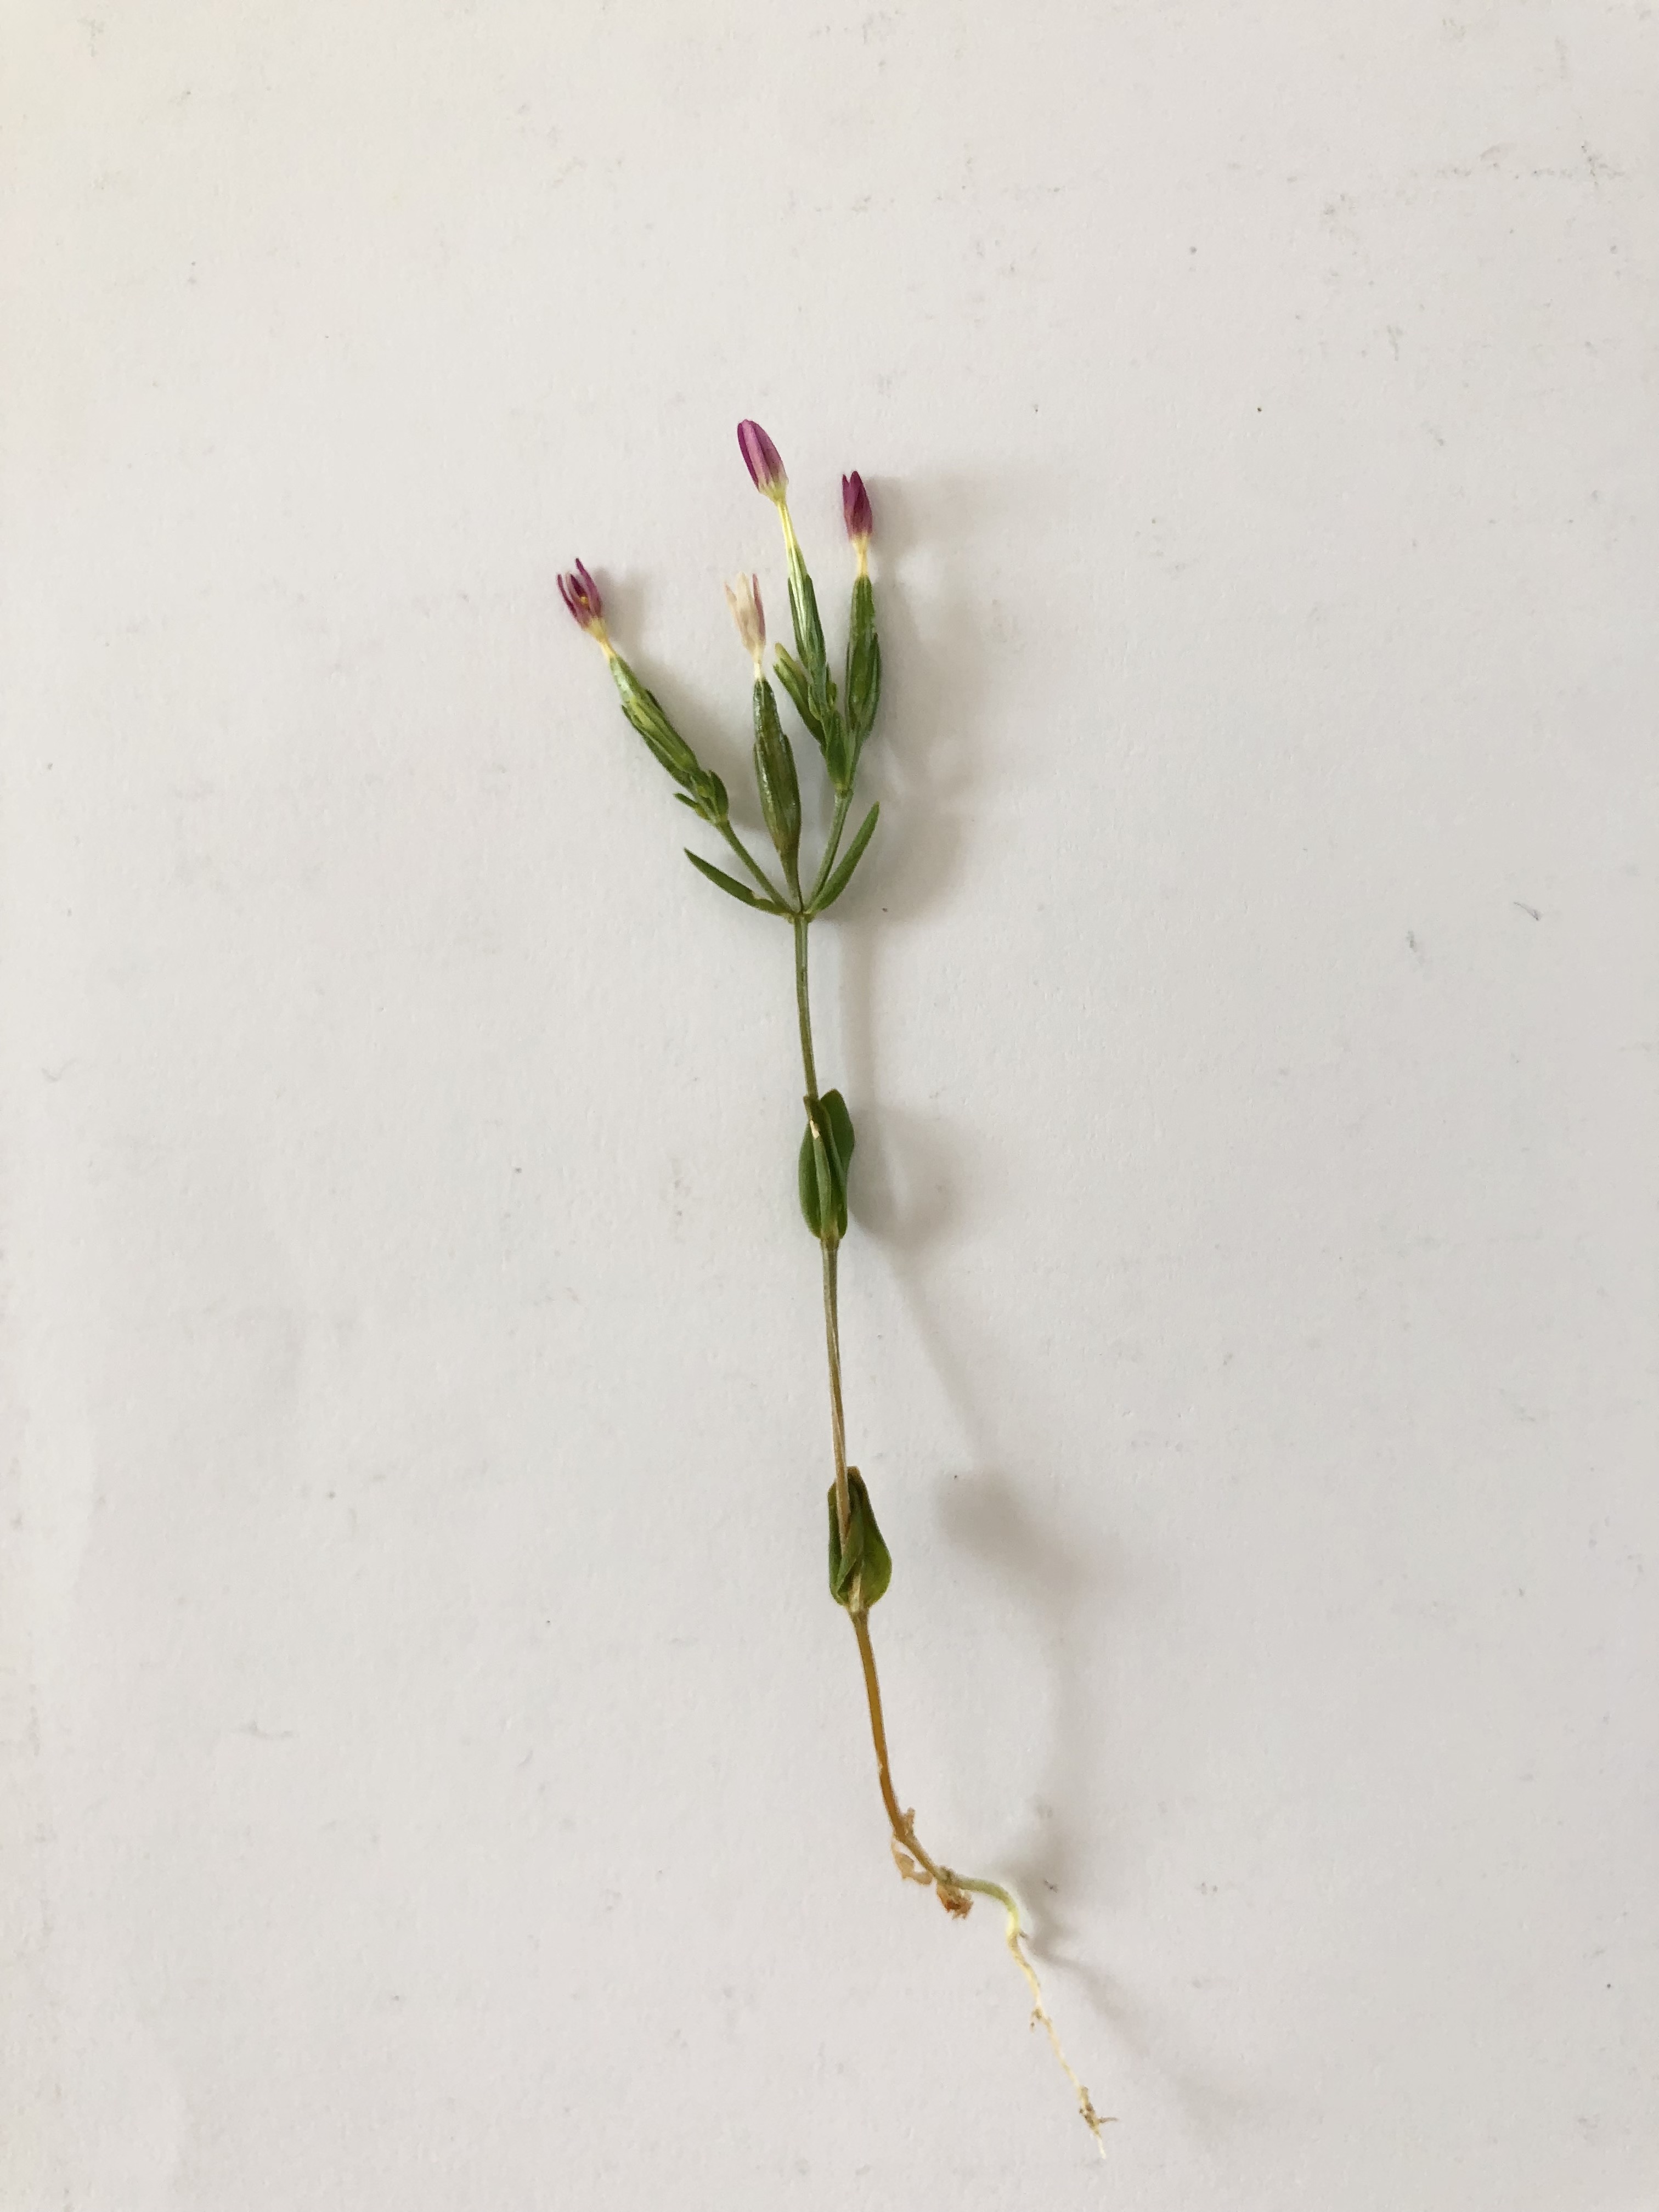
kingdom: Plantae
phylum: Tracheophyta
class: Magnoliopsida
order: Gentianales
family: Gentianaceae
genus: Centaurium
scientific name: Centaurium pulchellum
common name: Liden tusindgylden
